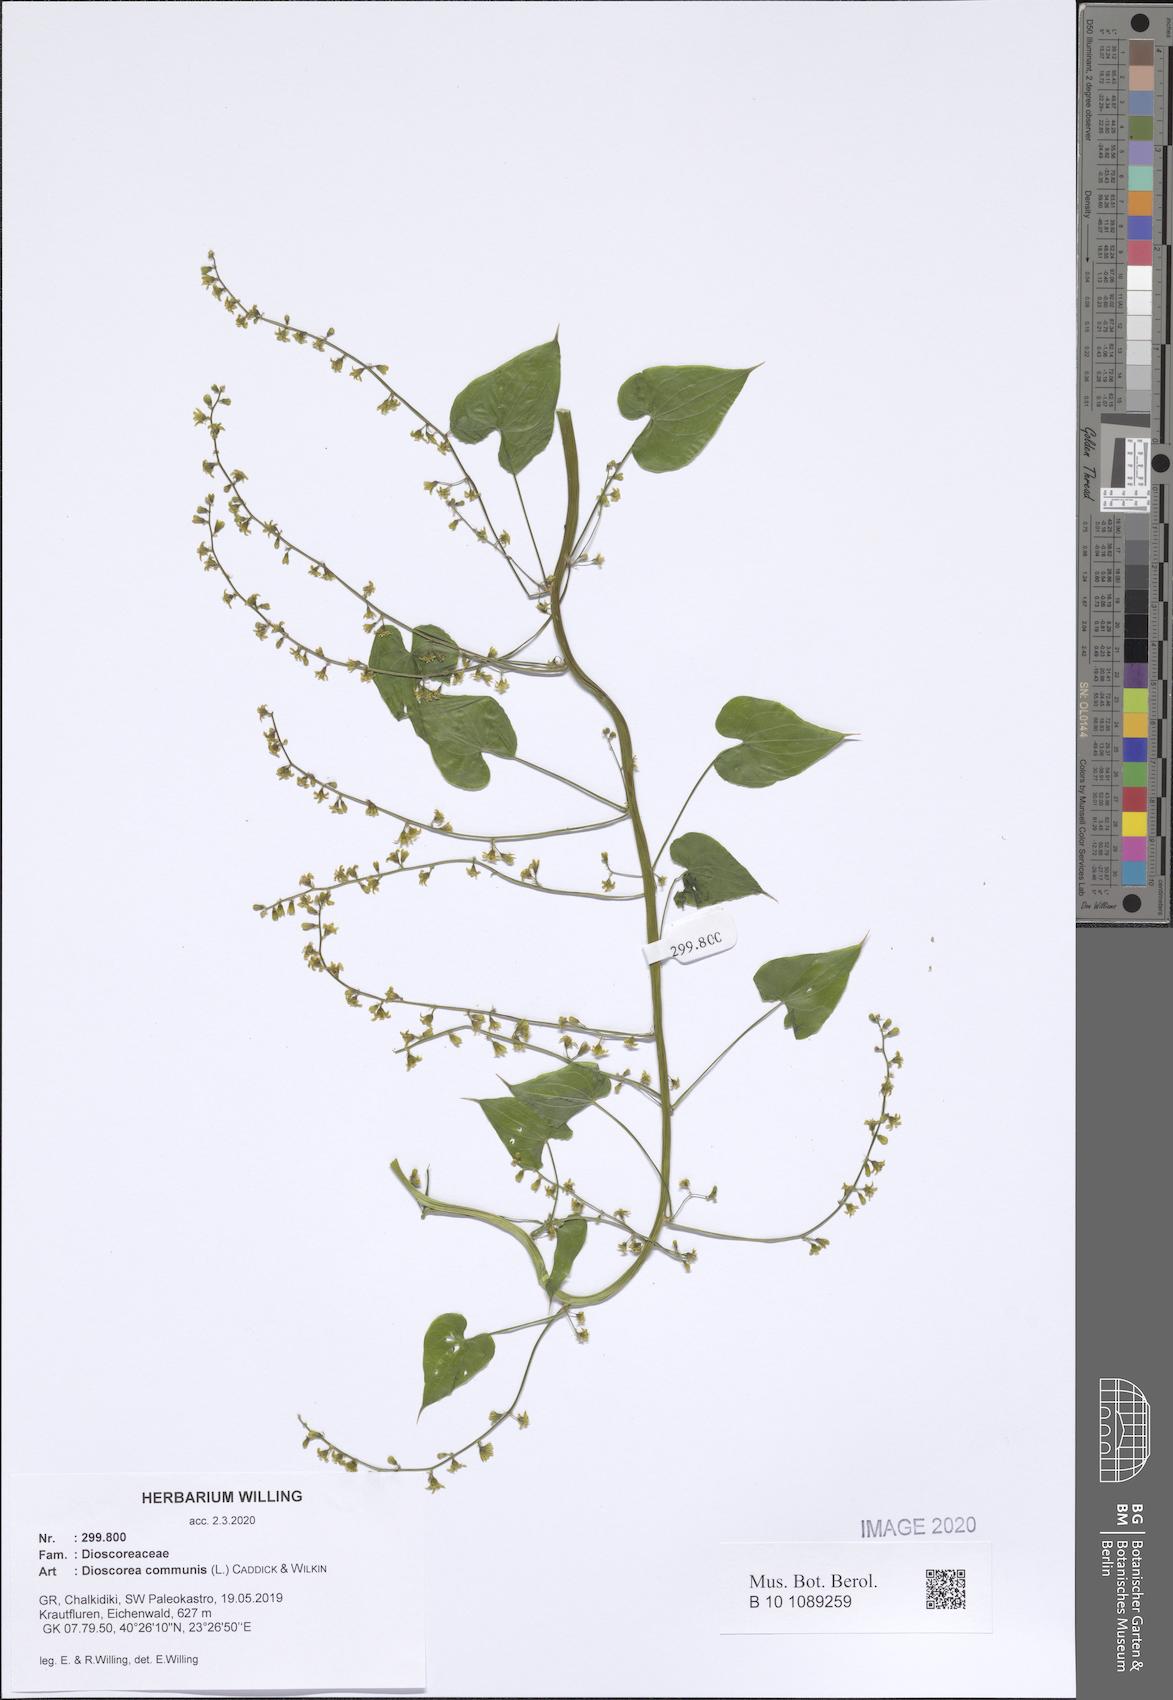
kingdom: Plantae
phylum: Tracheophyta
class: Liliopsida
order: Dioscoreales
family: Dioscoreaceae
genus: Dioscorea
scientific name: Dioscorea communis
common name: Black-bindweed
